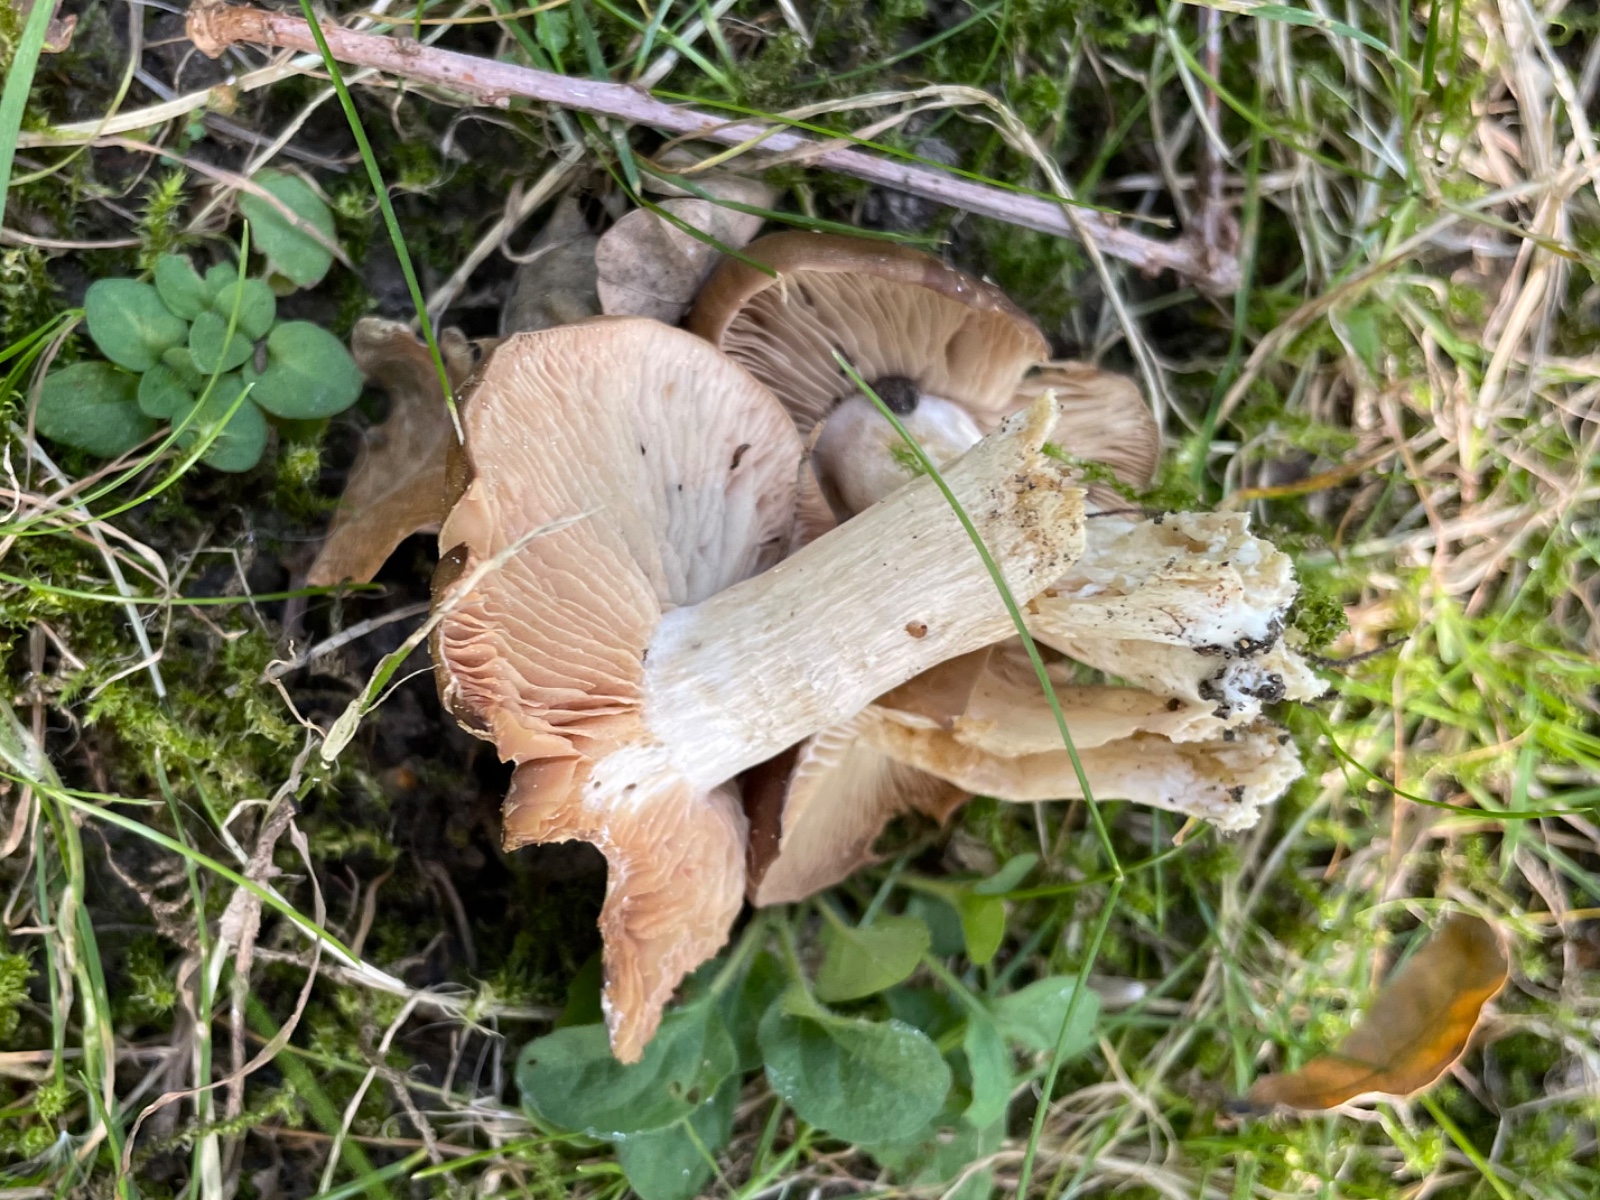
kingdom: Fungi
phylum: Basidiomycota
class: Agaricomycetes
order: Agaricales
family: Entolomataceae
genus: Entoloma
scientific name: Entoloma
